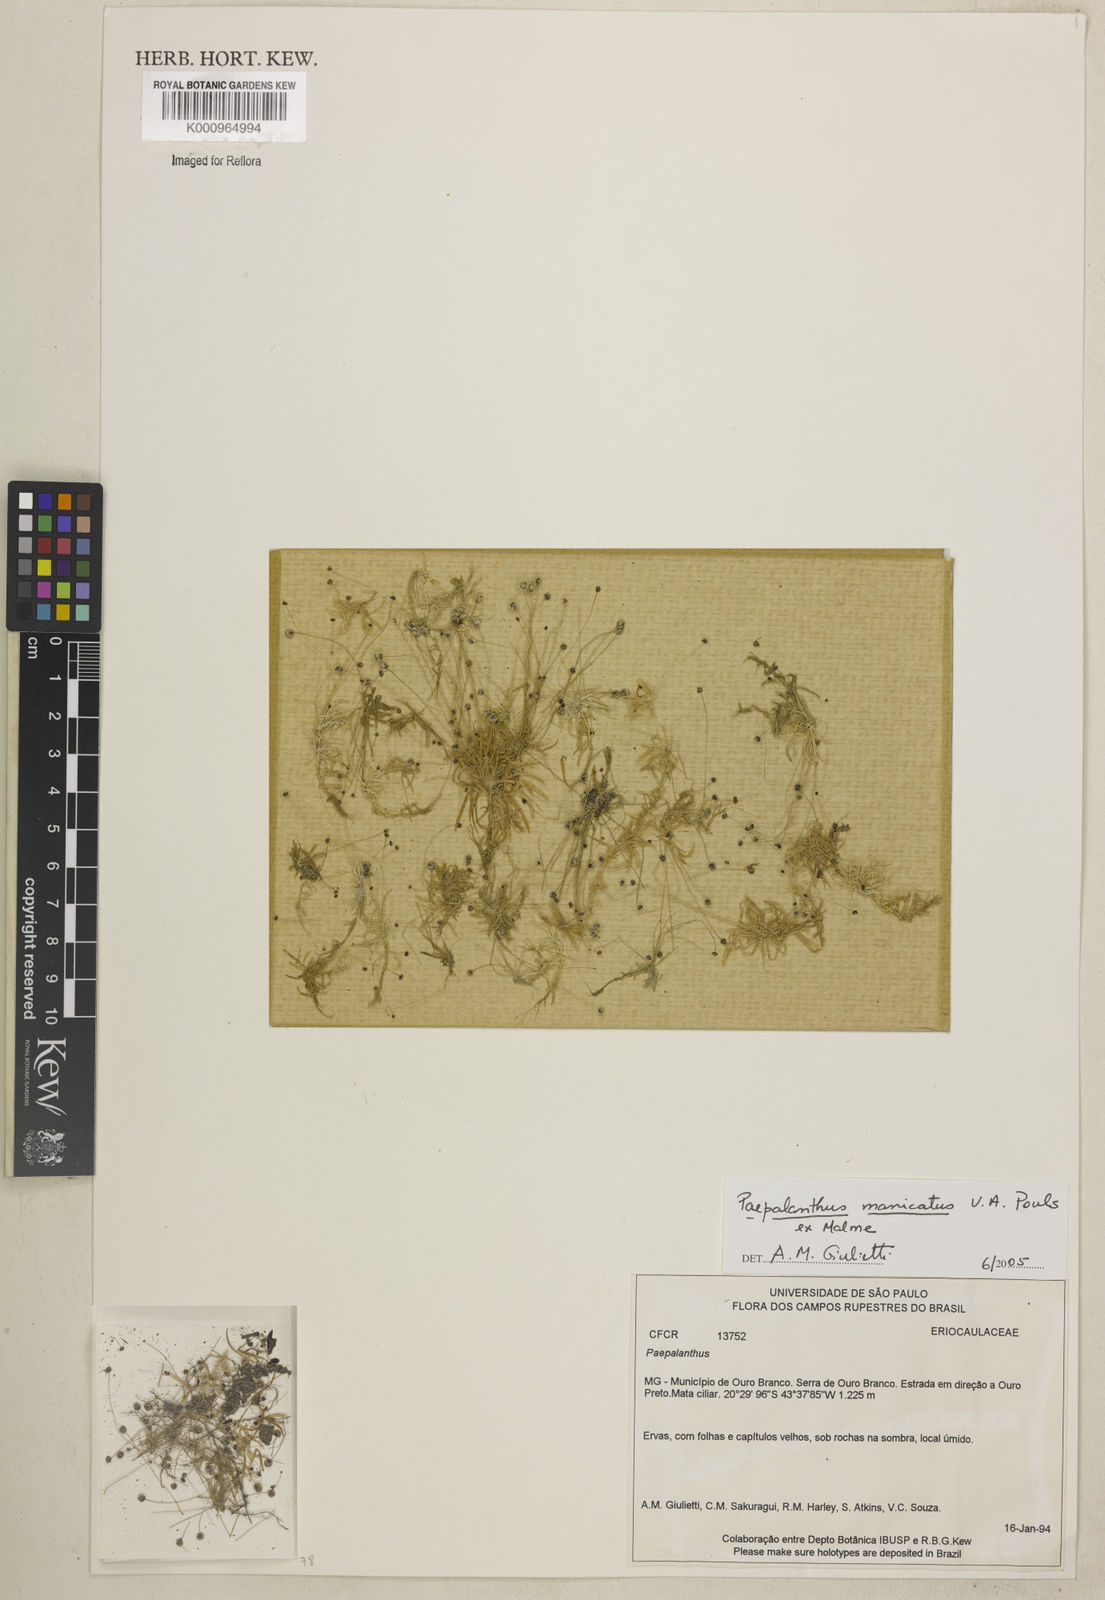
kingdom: Plantae
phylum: Tracheophyta
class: Liliopsida
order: Poales
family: Eriocaulaceae
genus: Paepalanthus
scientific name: Paepalanthus manicatus
